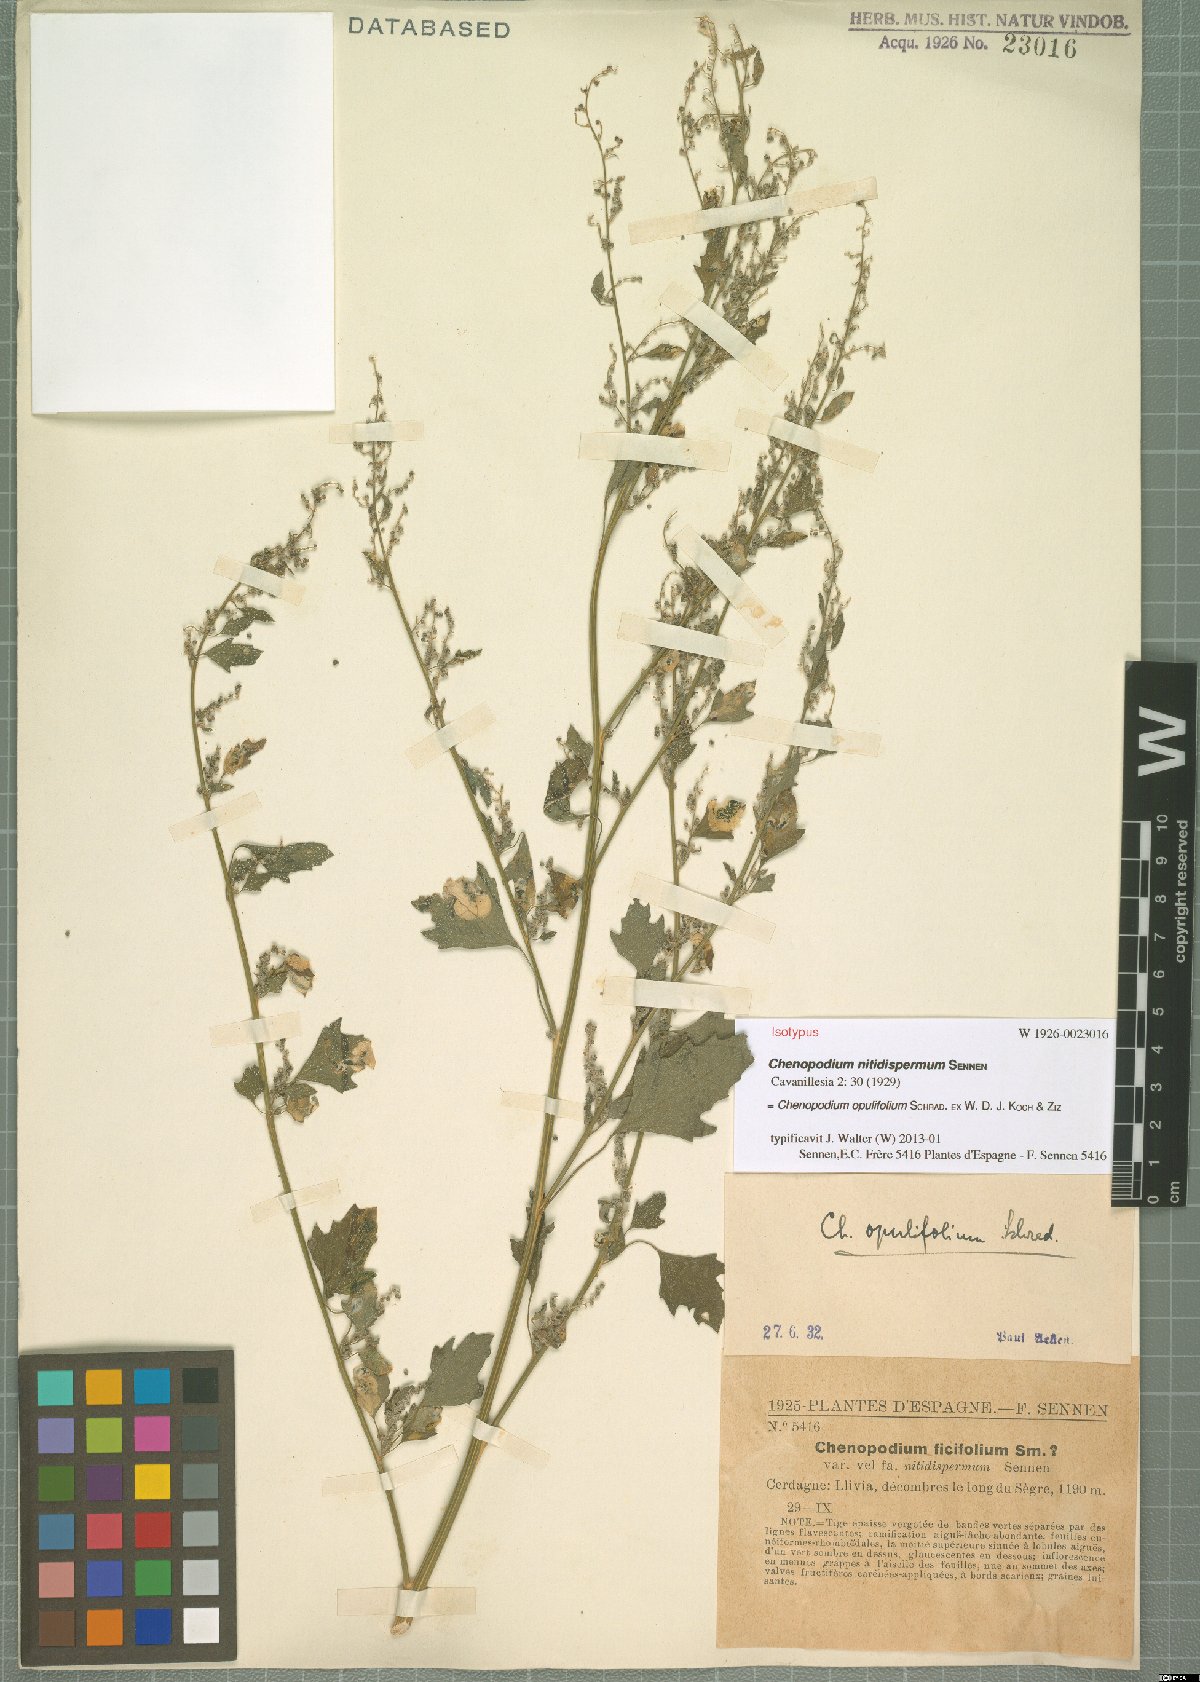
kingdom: Plantae
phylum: Tracheophyta
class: Magnoliopsida
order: Caryophyllales
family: Amaranthaceae
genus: Chenopodium
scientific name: Chenopodium opulifolium
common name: Grey goosefoot
